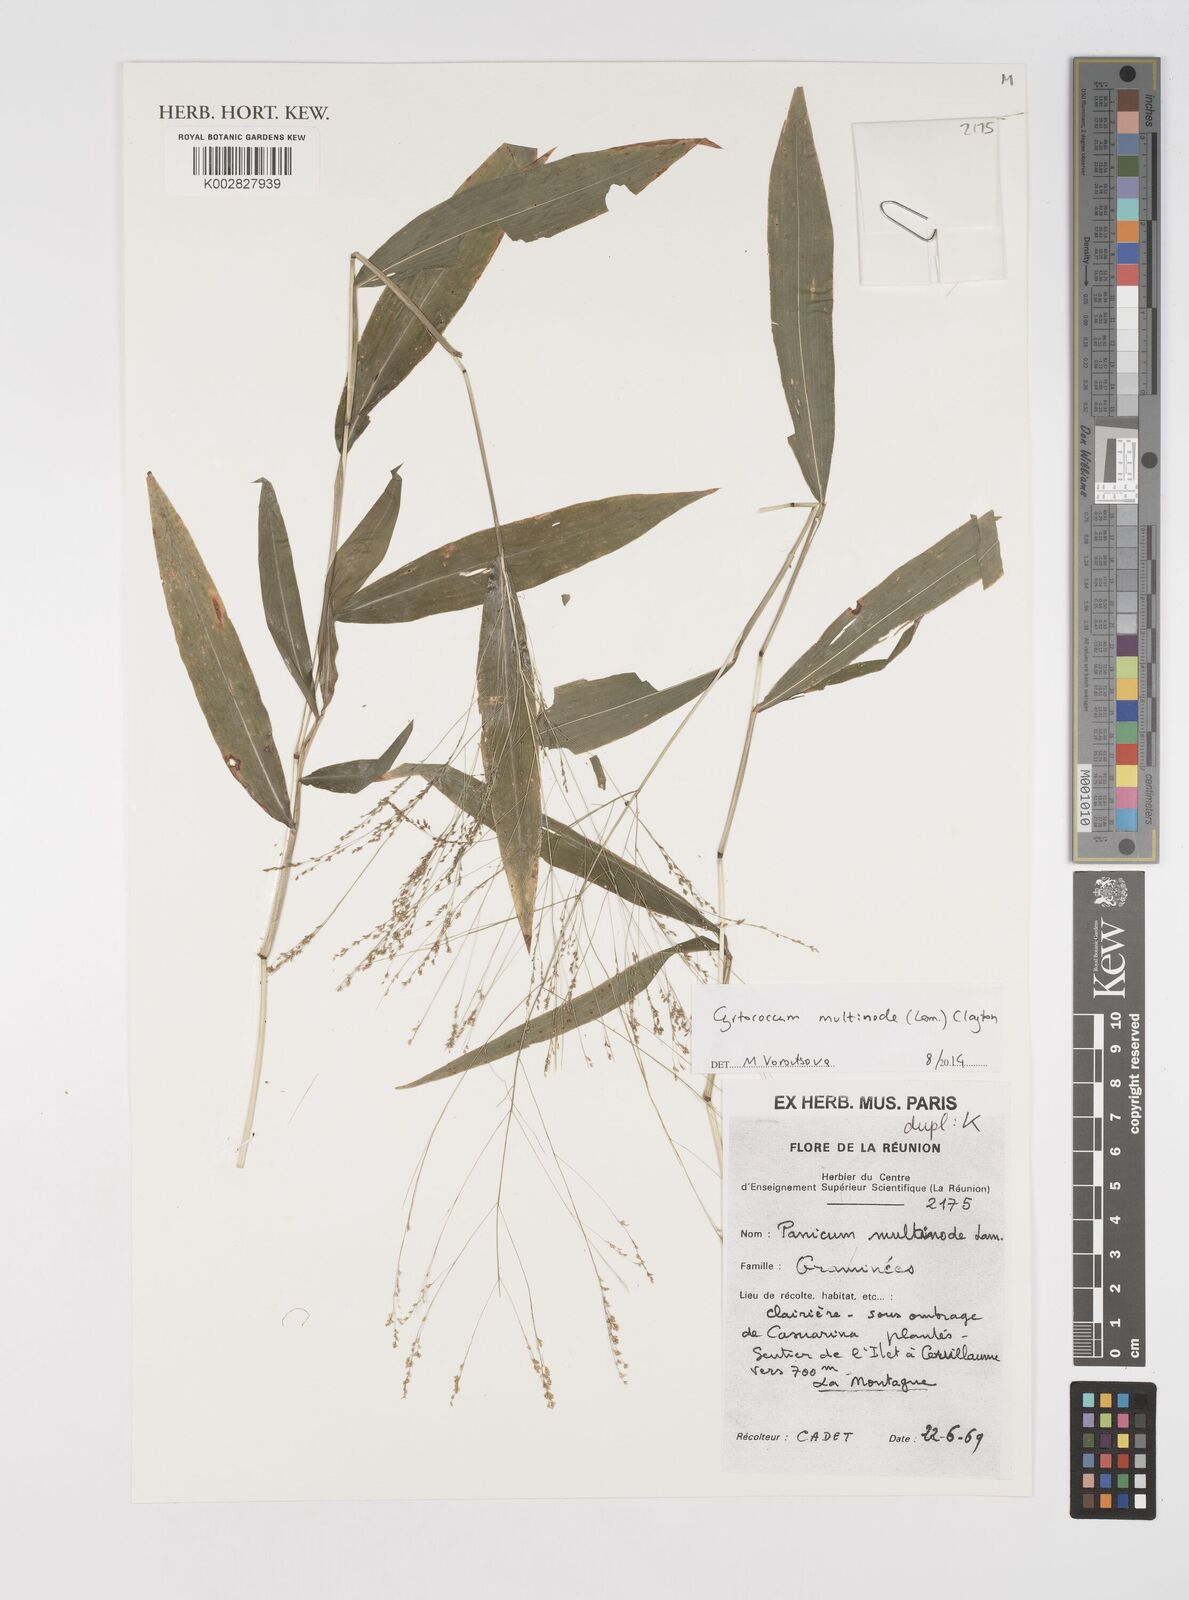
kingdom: Plantae
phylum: Tracheophyta
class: Liliopsida
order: Poales
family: Poaceae
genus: Cyrtococcum
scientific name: Cyrtococcum multinode
